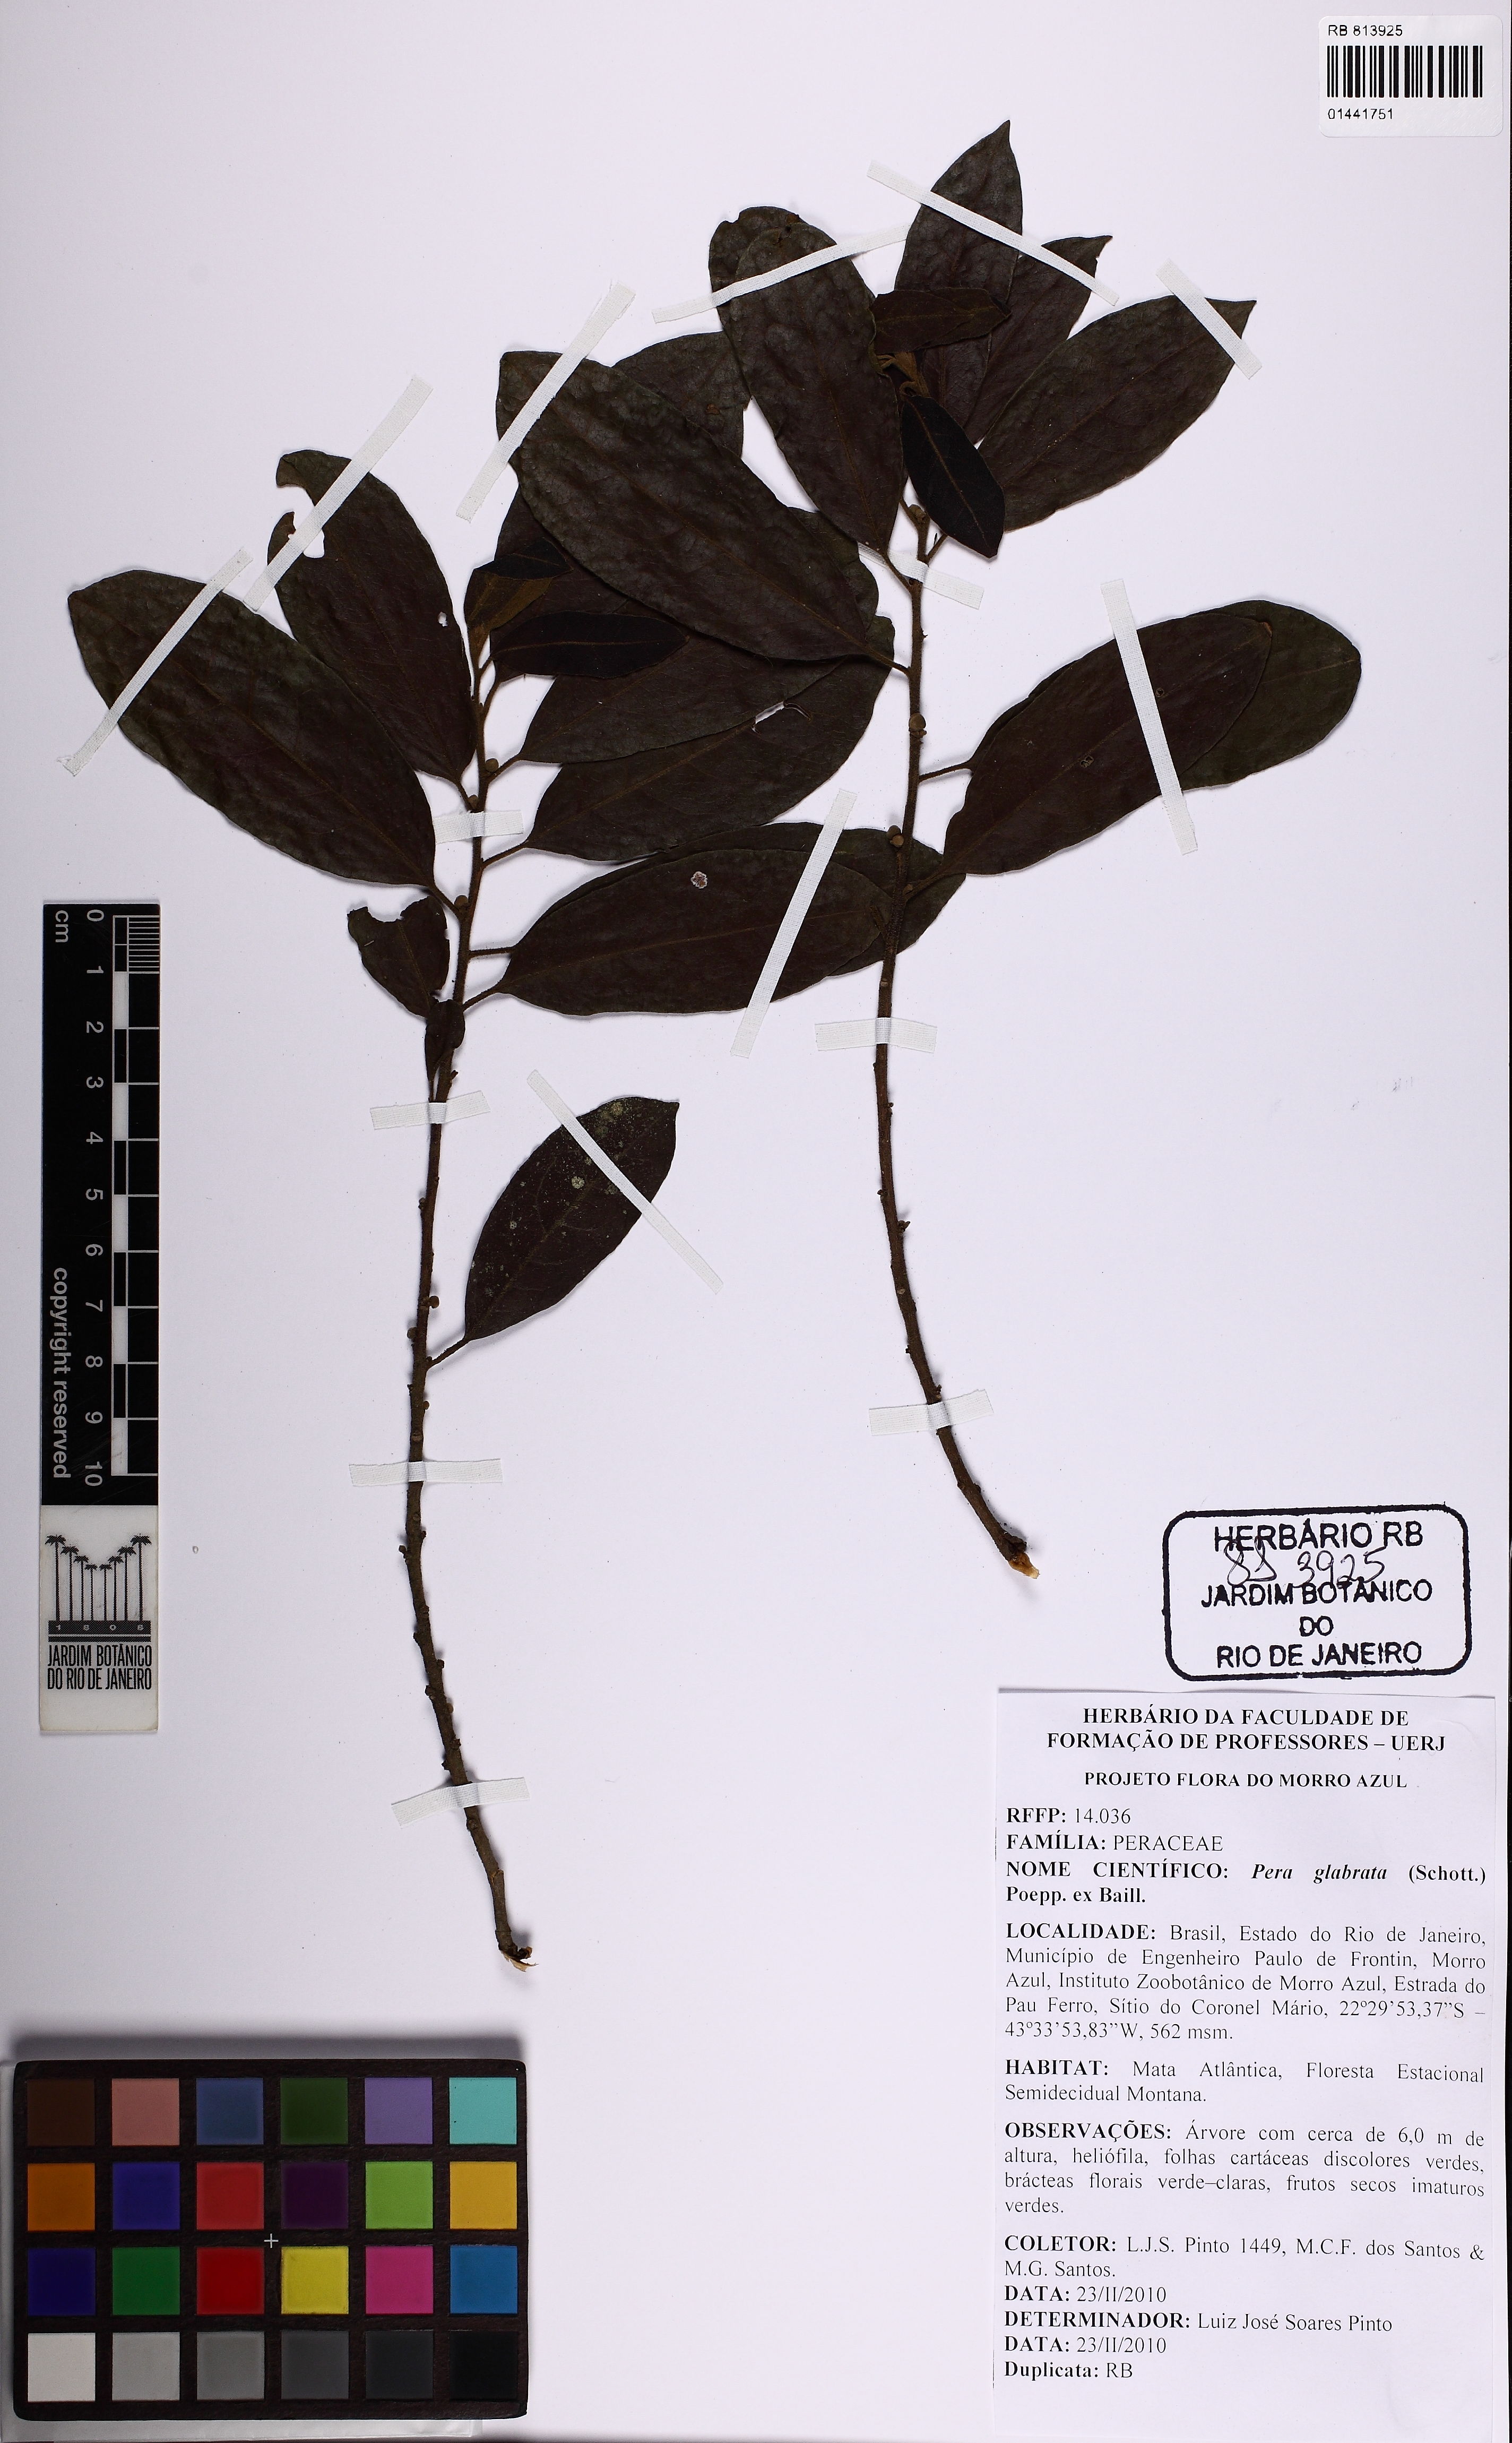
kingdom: Plantae
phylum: Tracheophyta
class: Magnoliopsida
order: Malpighiales
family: Peraceae
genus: Pera
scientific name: Pera glabrata
